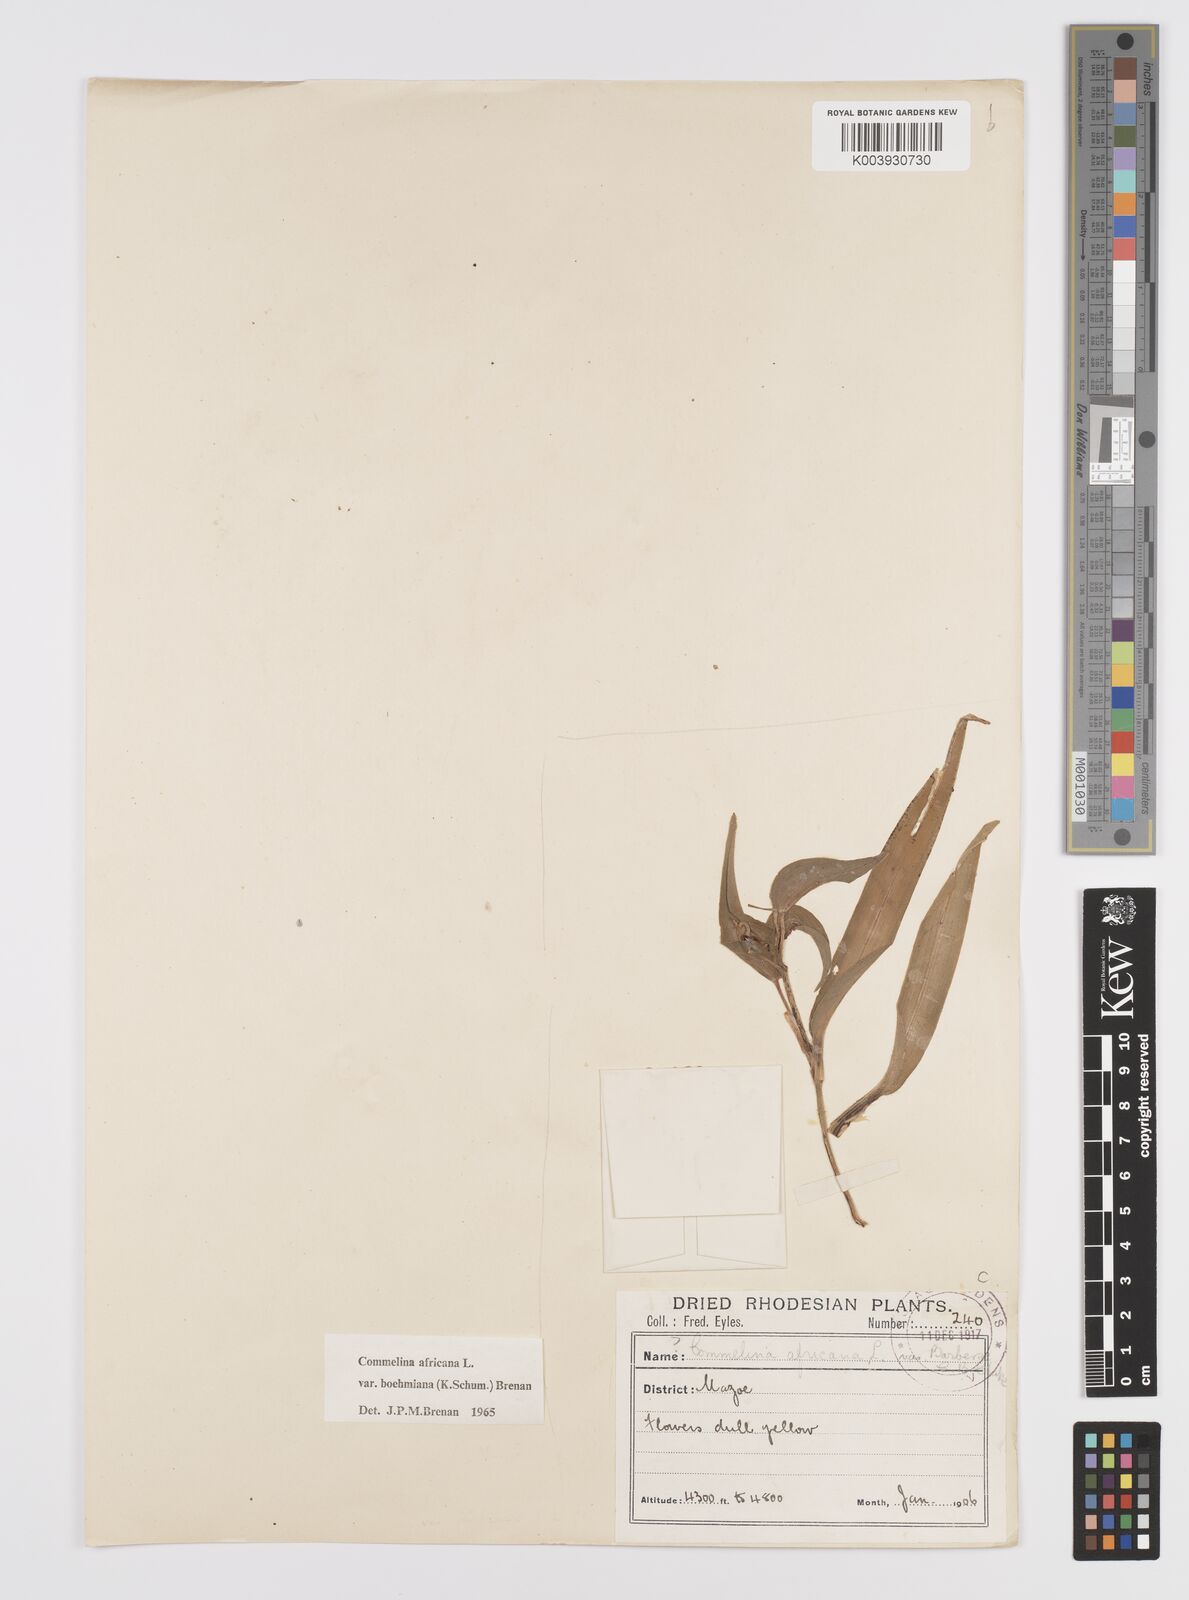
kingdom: Plantae
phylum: Tracheophyta
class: Liliopsida
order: Commelinales
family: Commelinaceae
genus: Commelina
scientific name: Commelina africana
